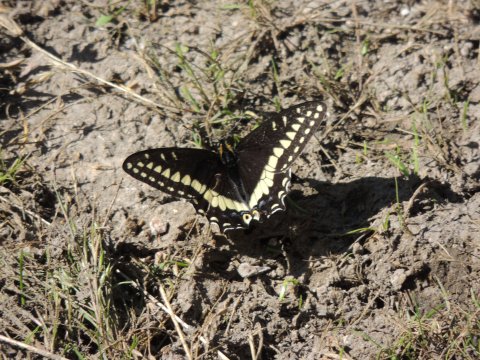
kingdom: Animalia
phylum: Arthropoda
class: Insecta
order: Lepidoptera
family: Papilionidae
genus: Papilio
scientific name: Papilio indra
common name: Indra Swallowtail
